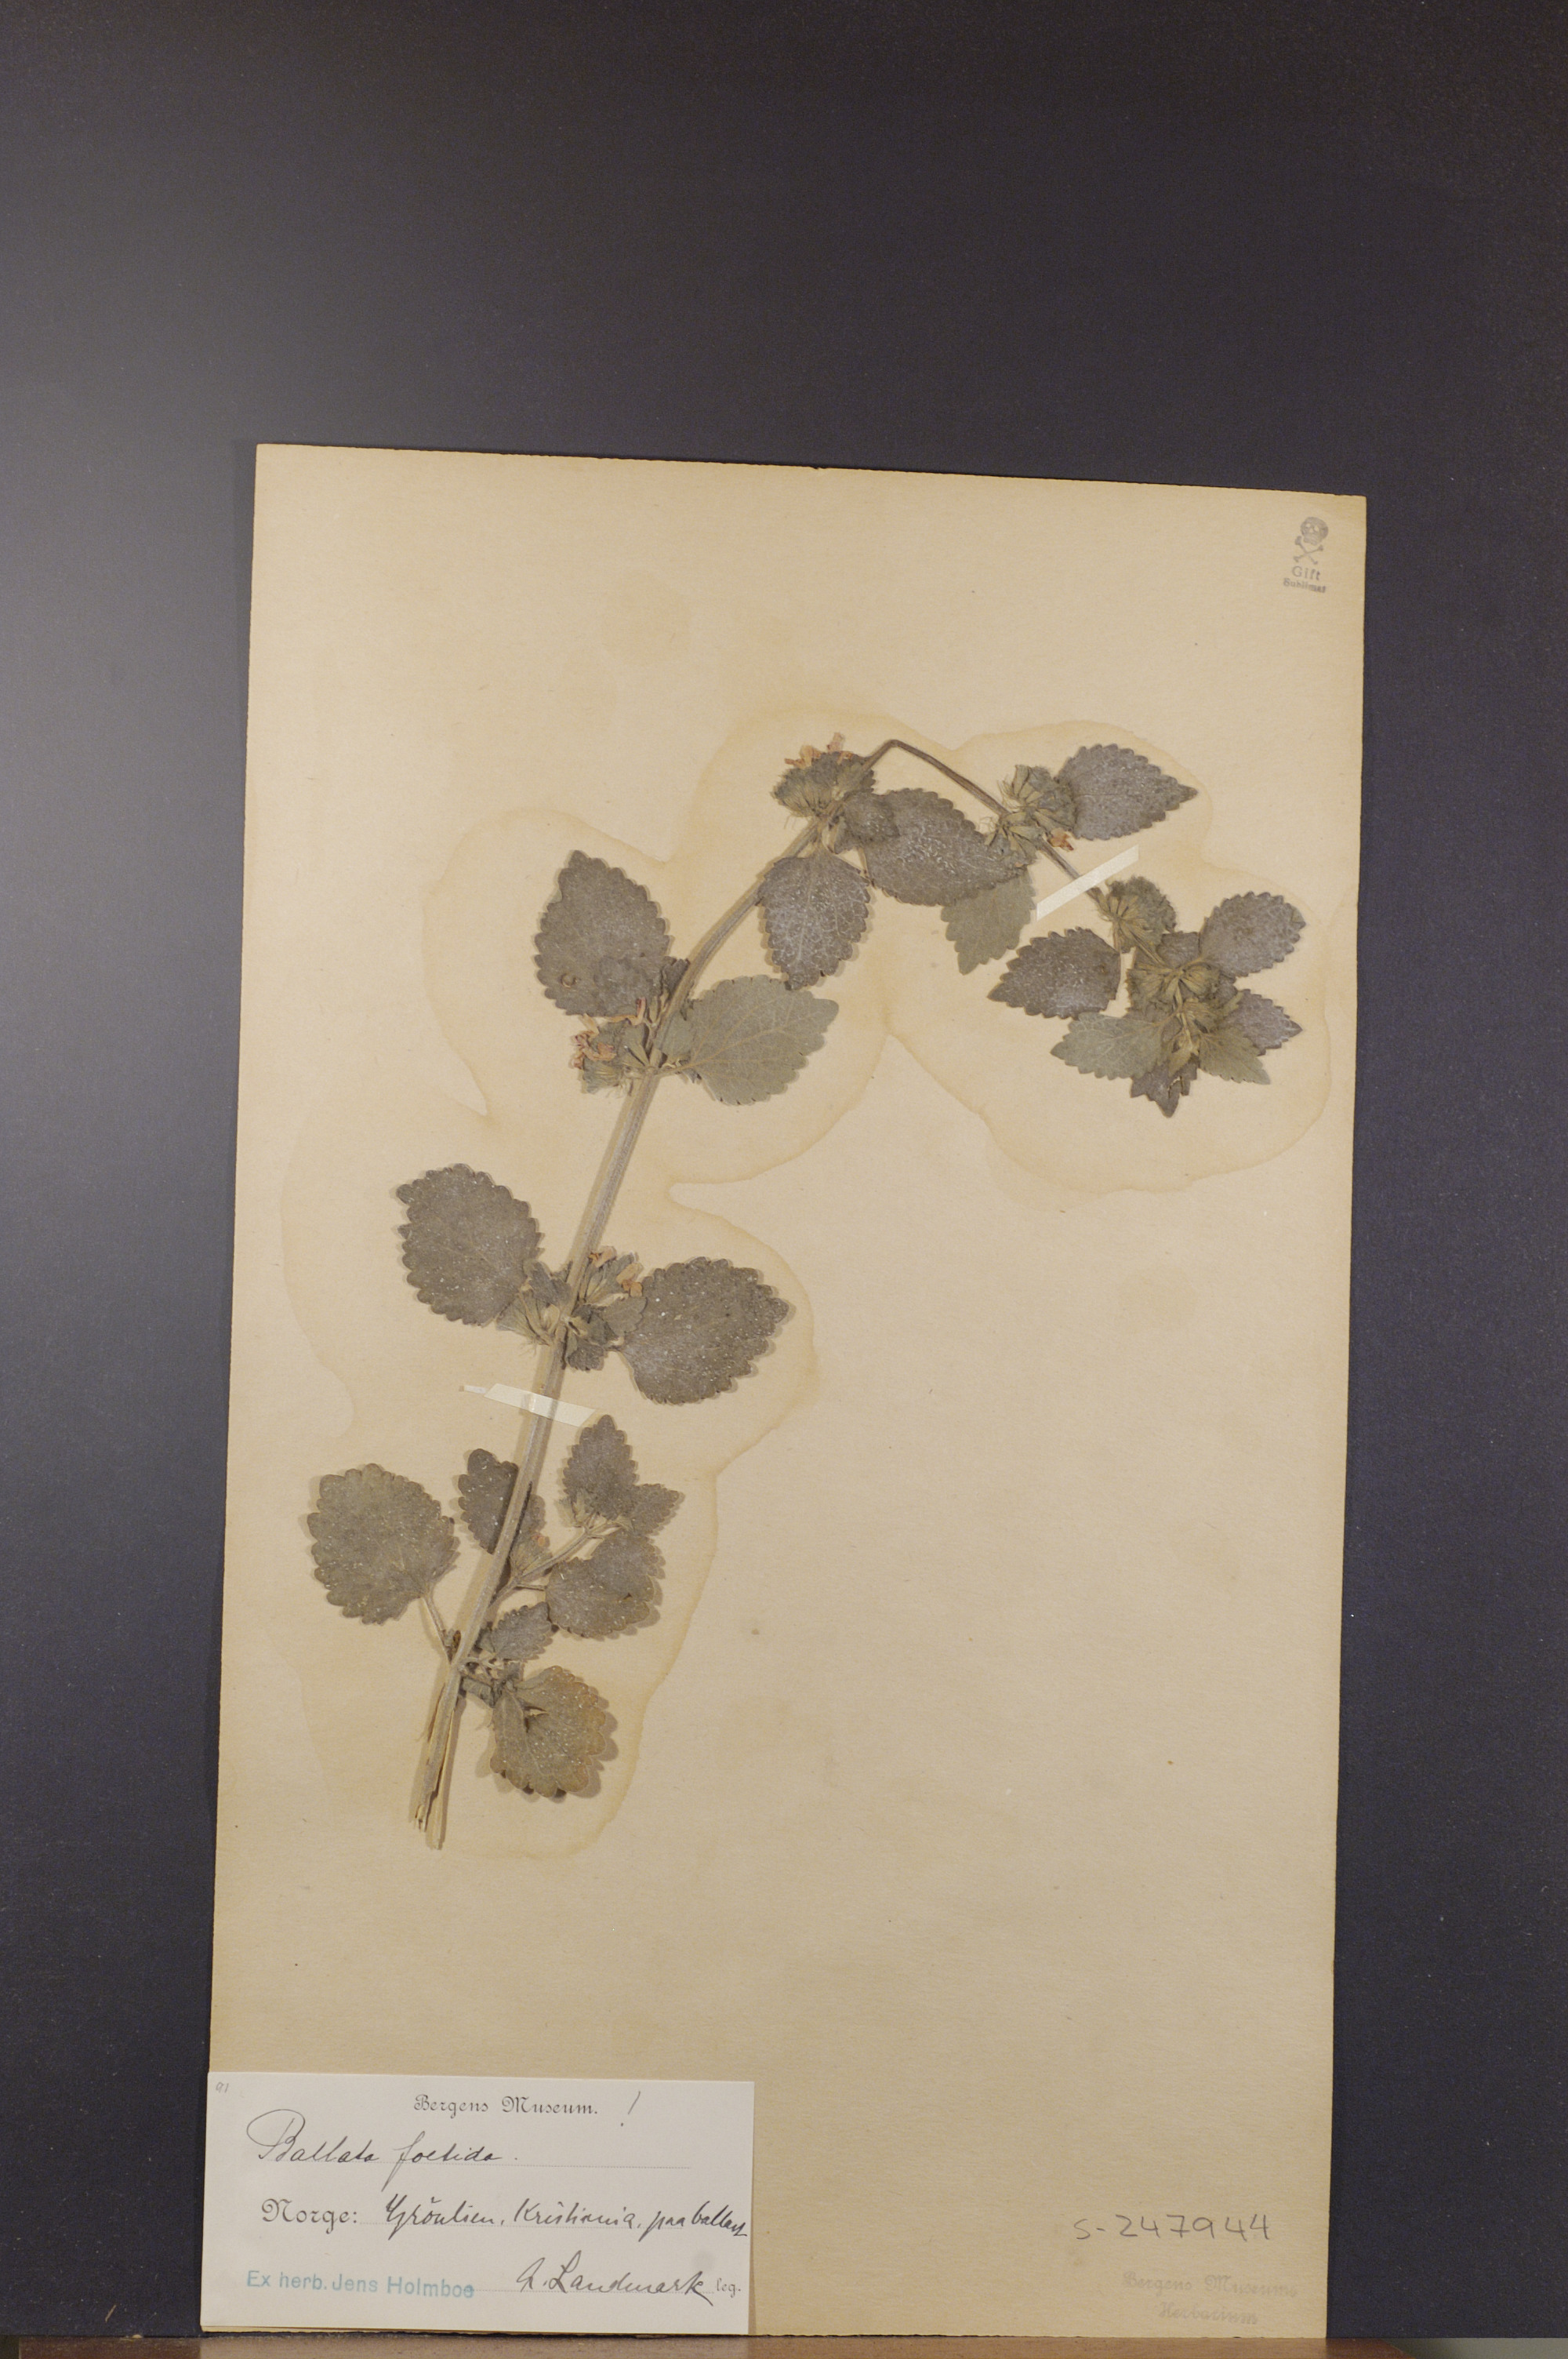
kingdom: Plantae
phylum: Tracheophyta
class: Magnoliopsida
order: Lamiales
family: Lamiaceae
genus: Ballota
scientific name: Ballota nigra
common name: Black horehound
